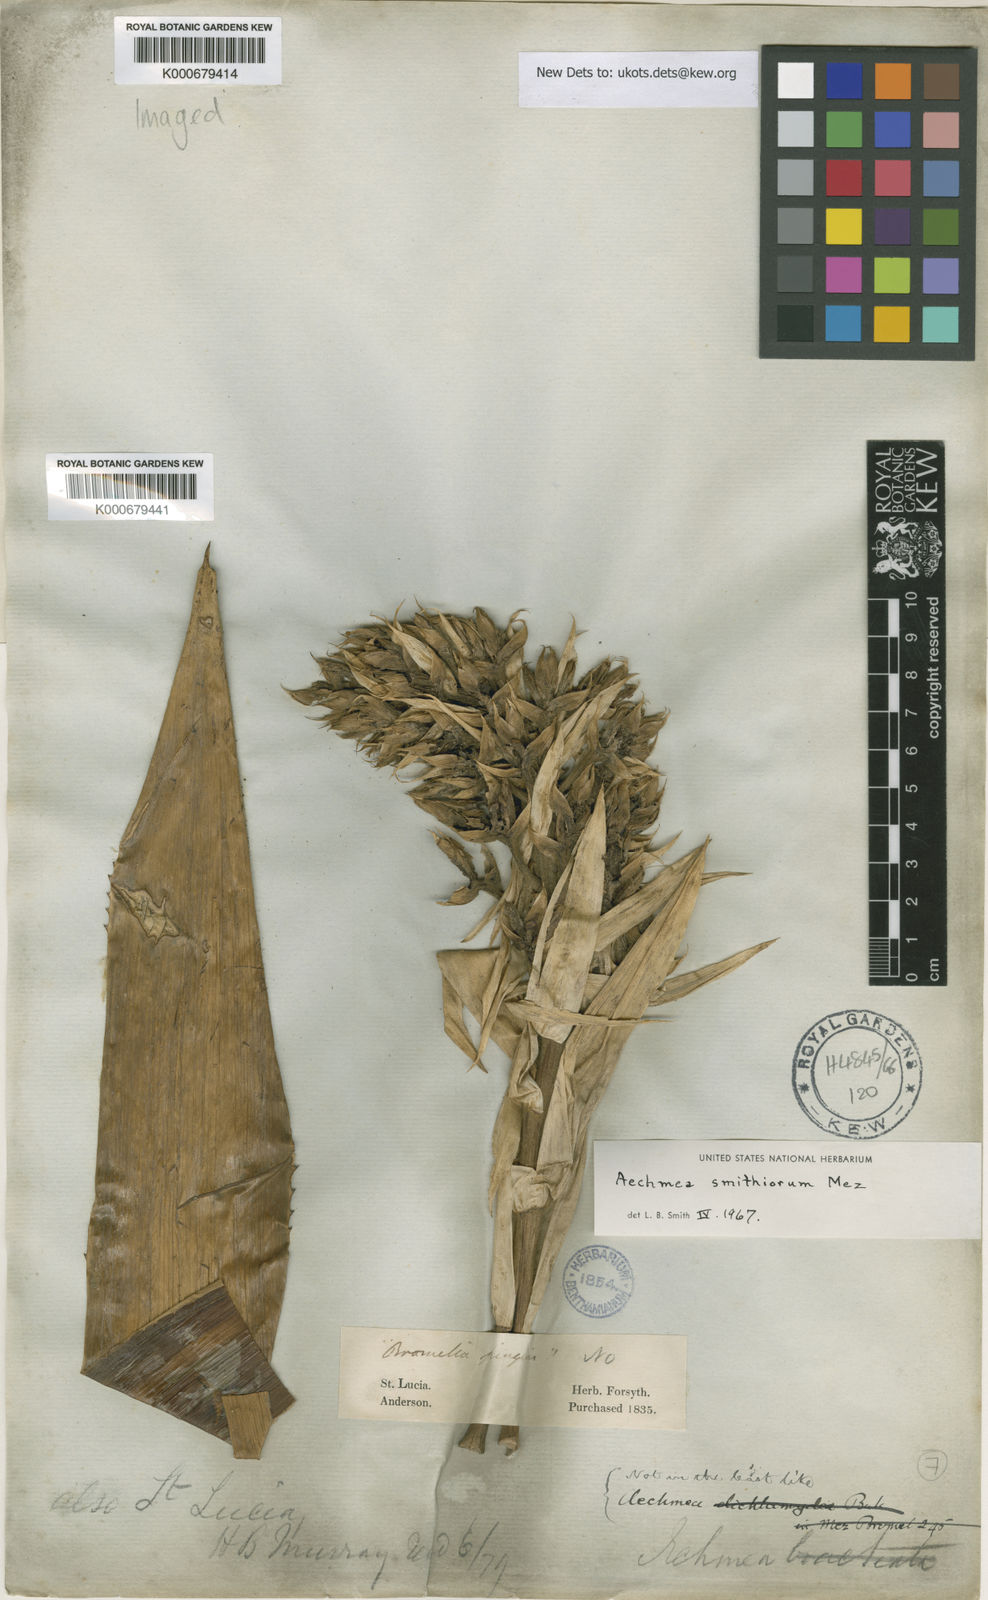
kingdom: Plantae
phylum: Tracheophyta
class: Liliopsida
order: Poales
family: Bromeliaceae
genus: Aechmea
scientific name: Aechmea smithiorum
